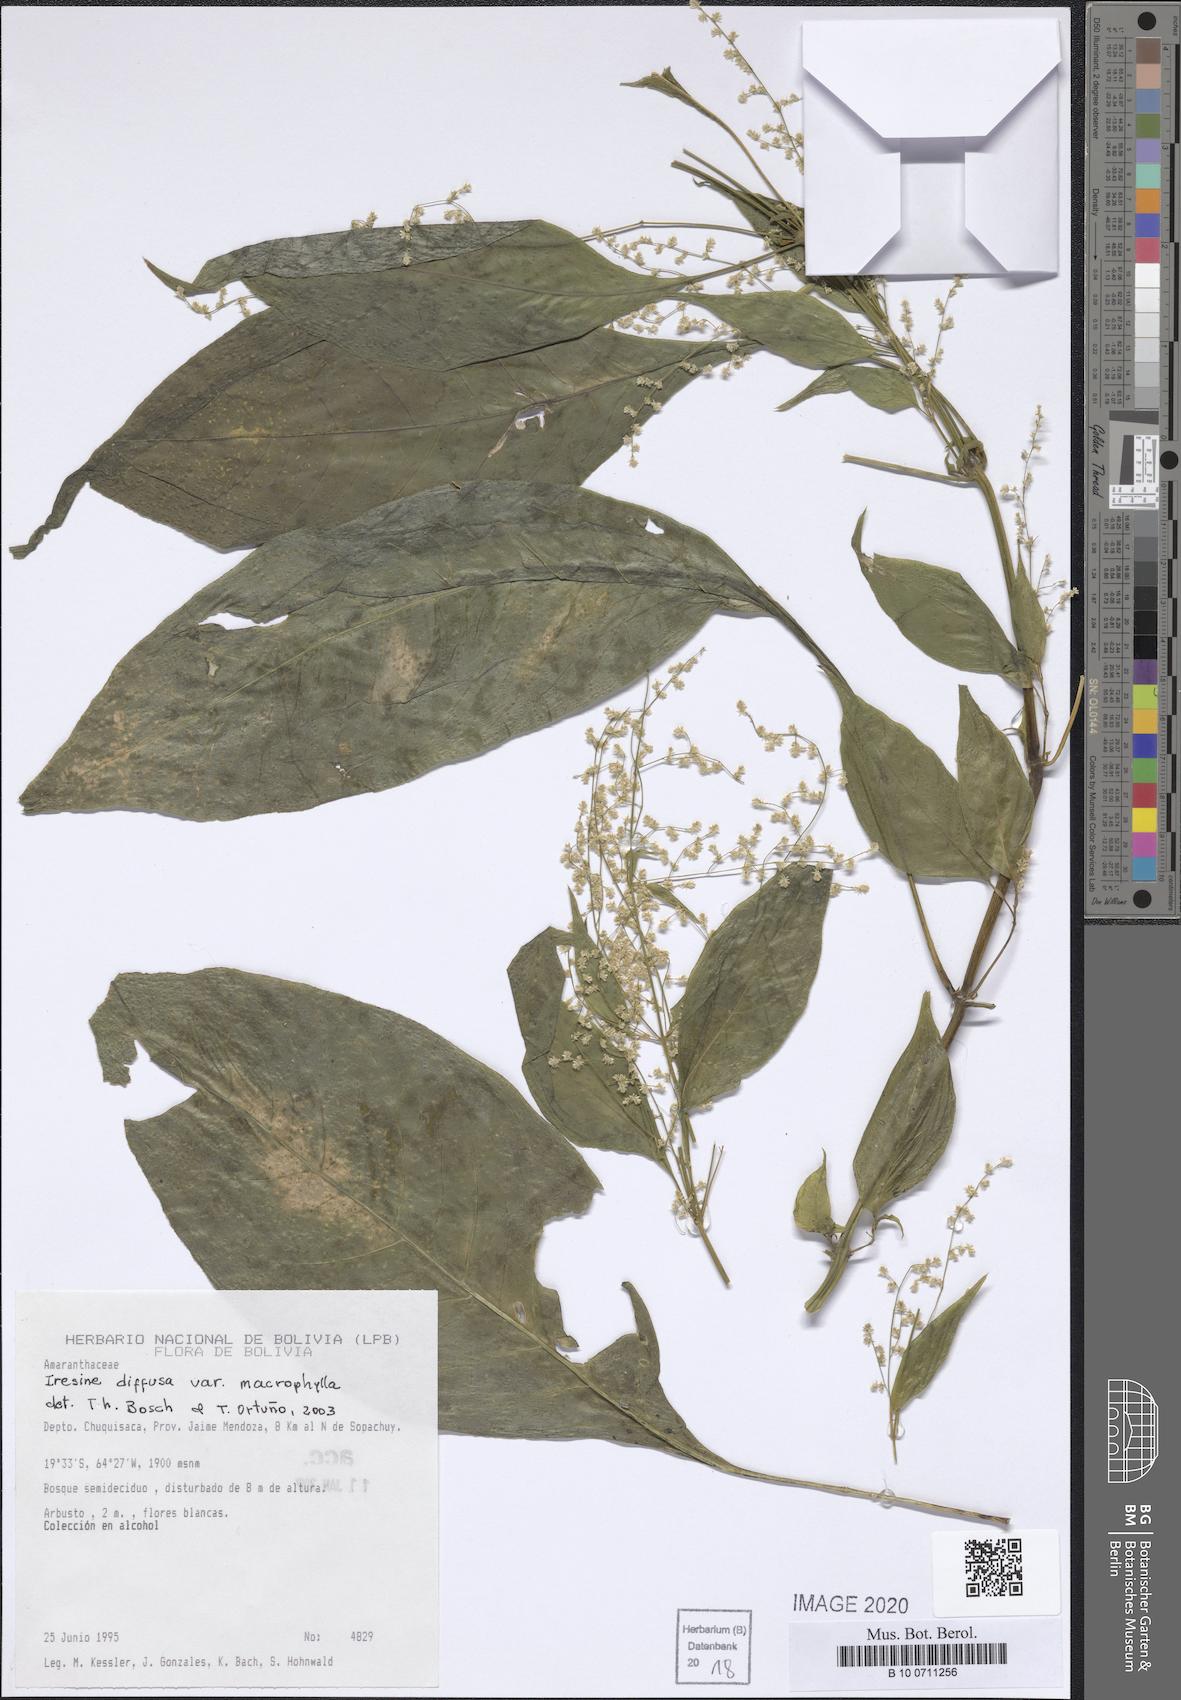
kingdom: Plantae
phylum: Tracheophyta
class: Magnoliopsida
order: Caryophyllales
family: Amaranthaceae
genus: Iresine
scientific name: Iresine diffusa
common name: Juba's-bush
